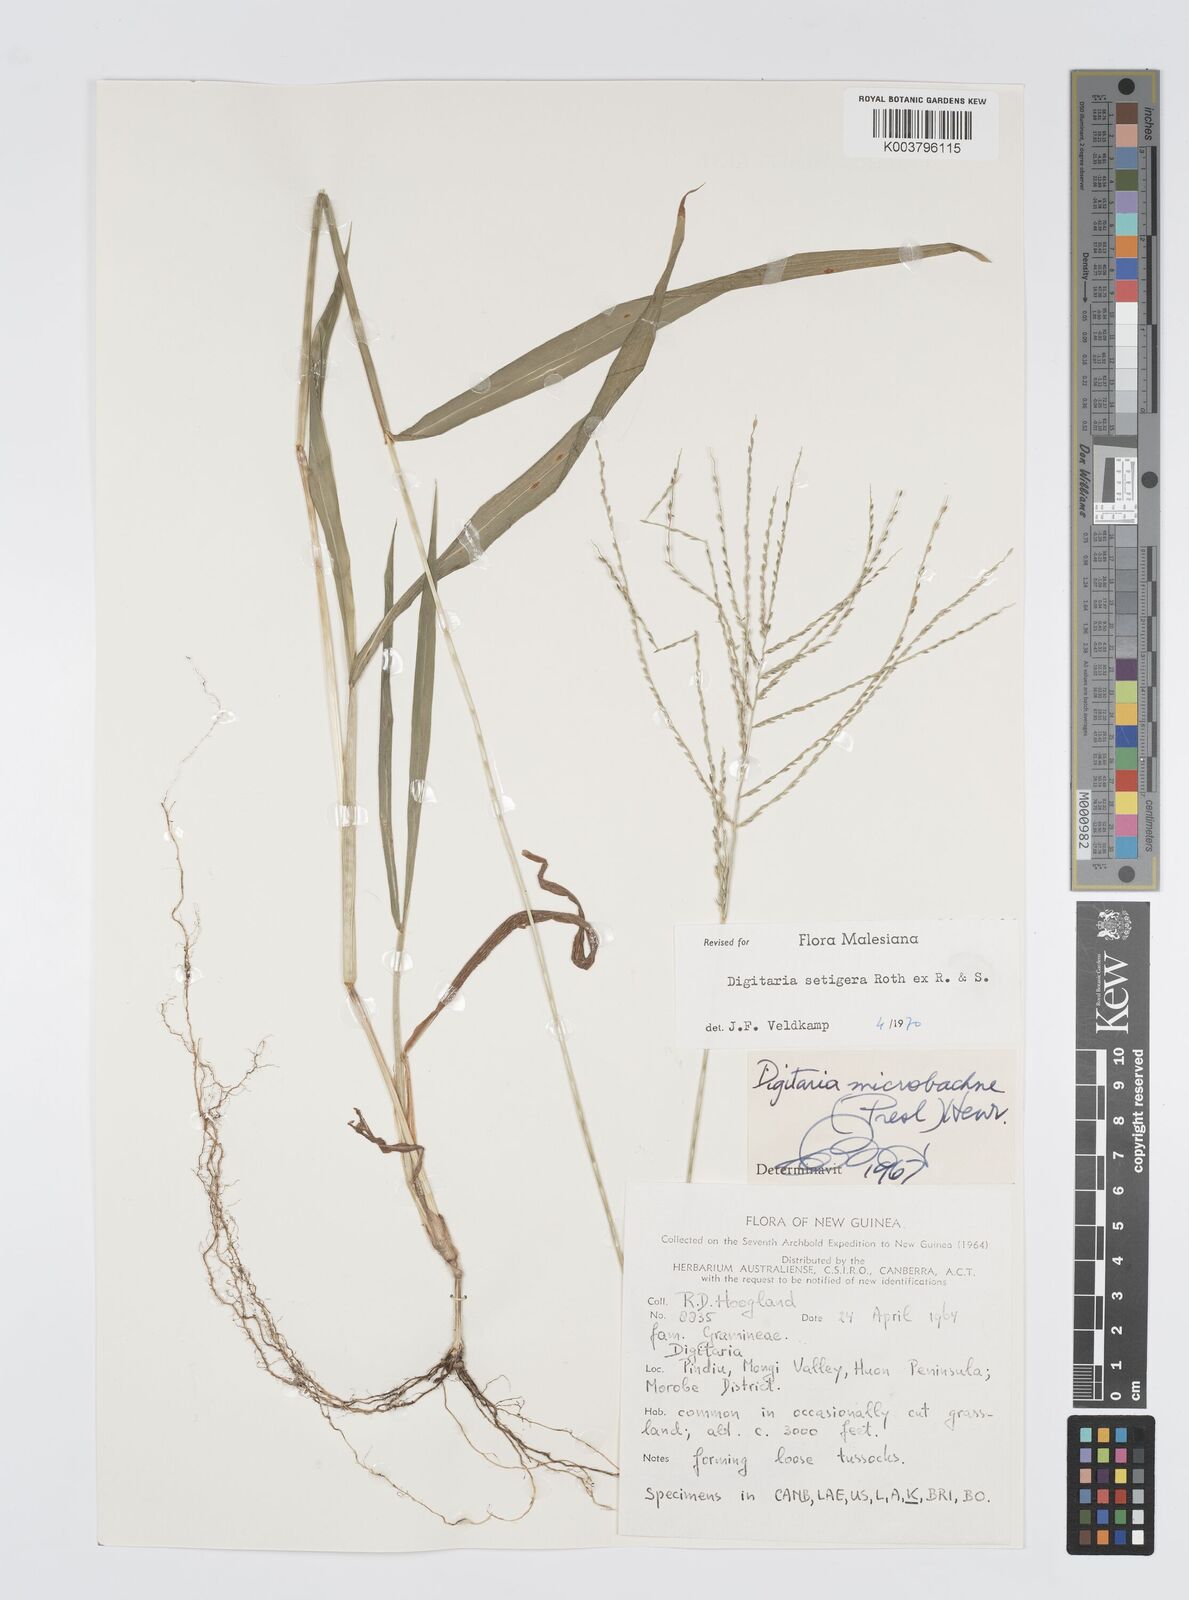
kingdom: Plantae
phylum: Tracheophyta
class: Liliopsida
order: Poales
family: Poaceae
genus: Digitaria
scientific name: Digitaria setigera
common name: East indian crabgrass
